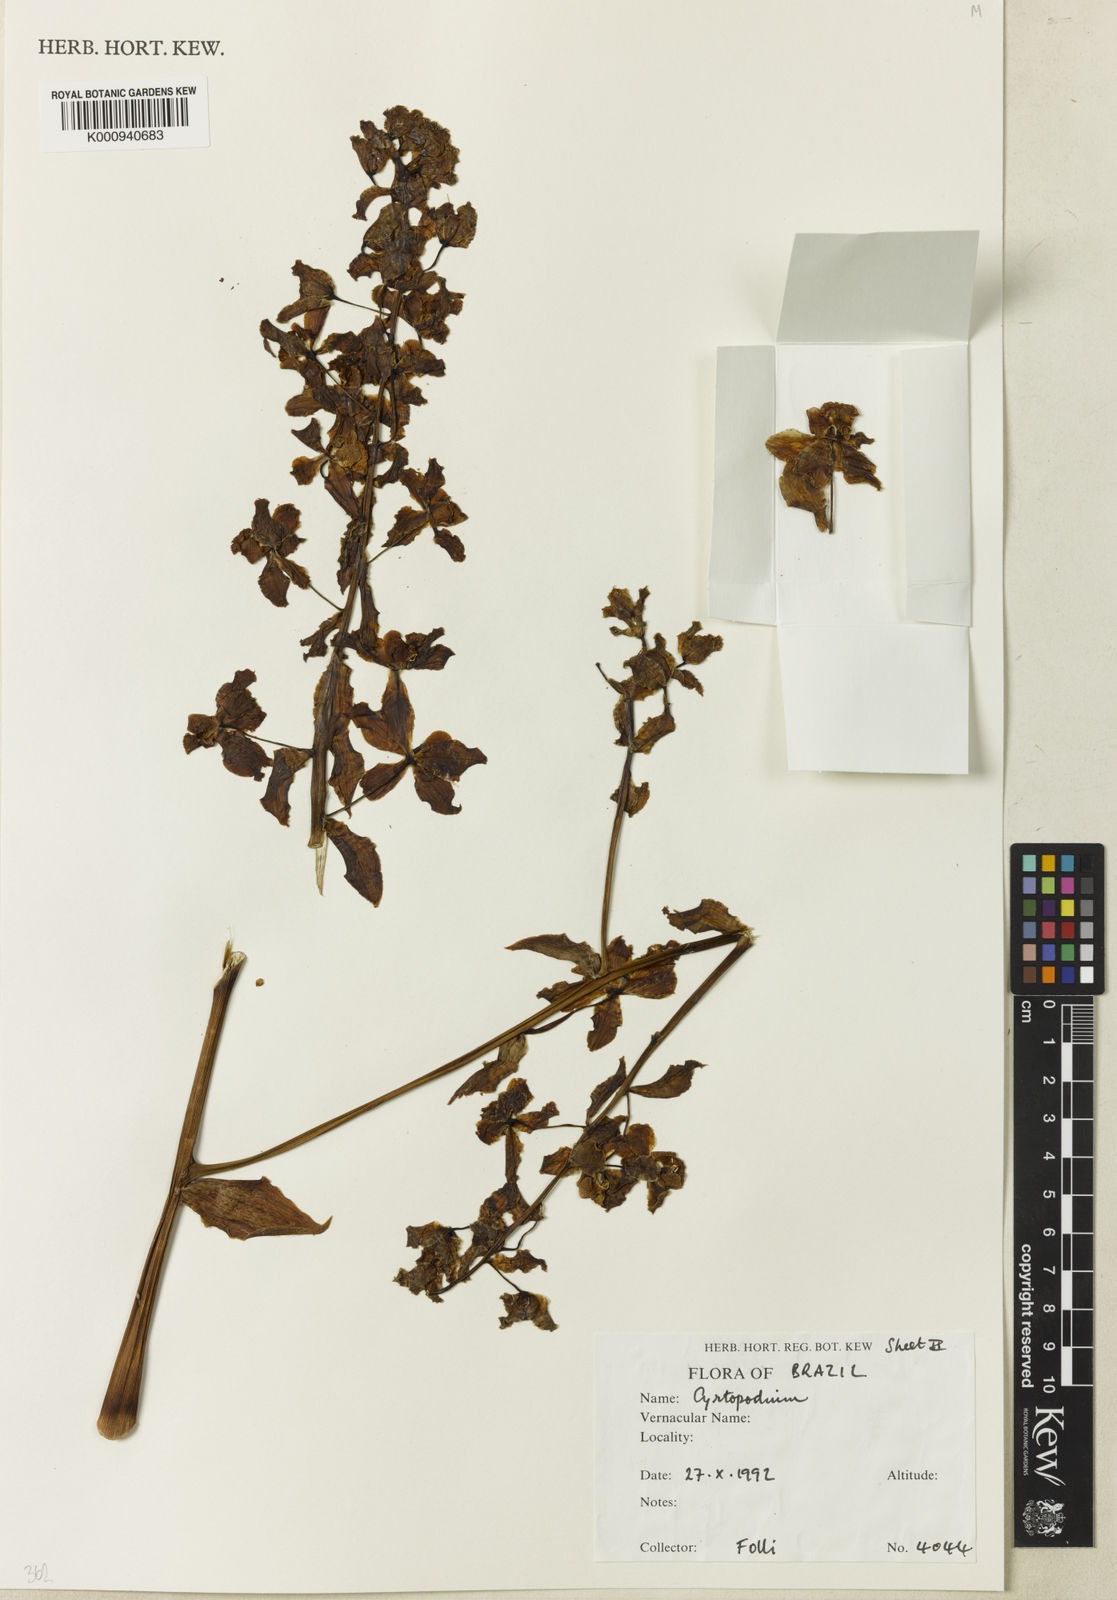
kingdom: Plantae
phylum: Tracheophyta
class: Liliopsida
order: Asparagales
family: Orchidaceae
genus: Cyrtopodium
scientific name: Cyrtopodium
